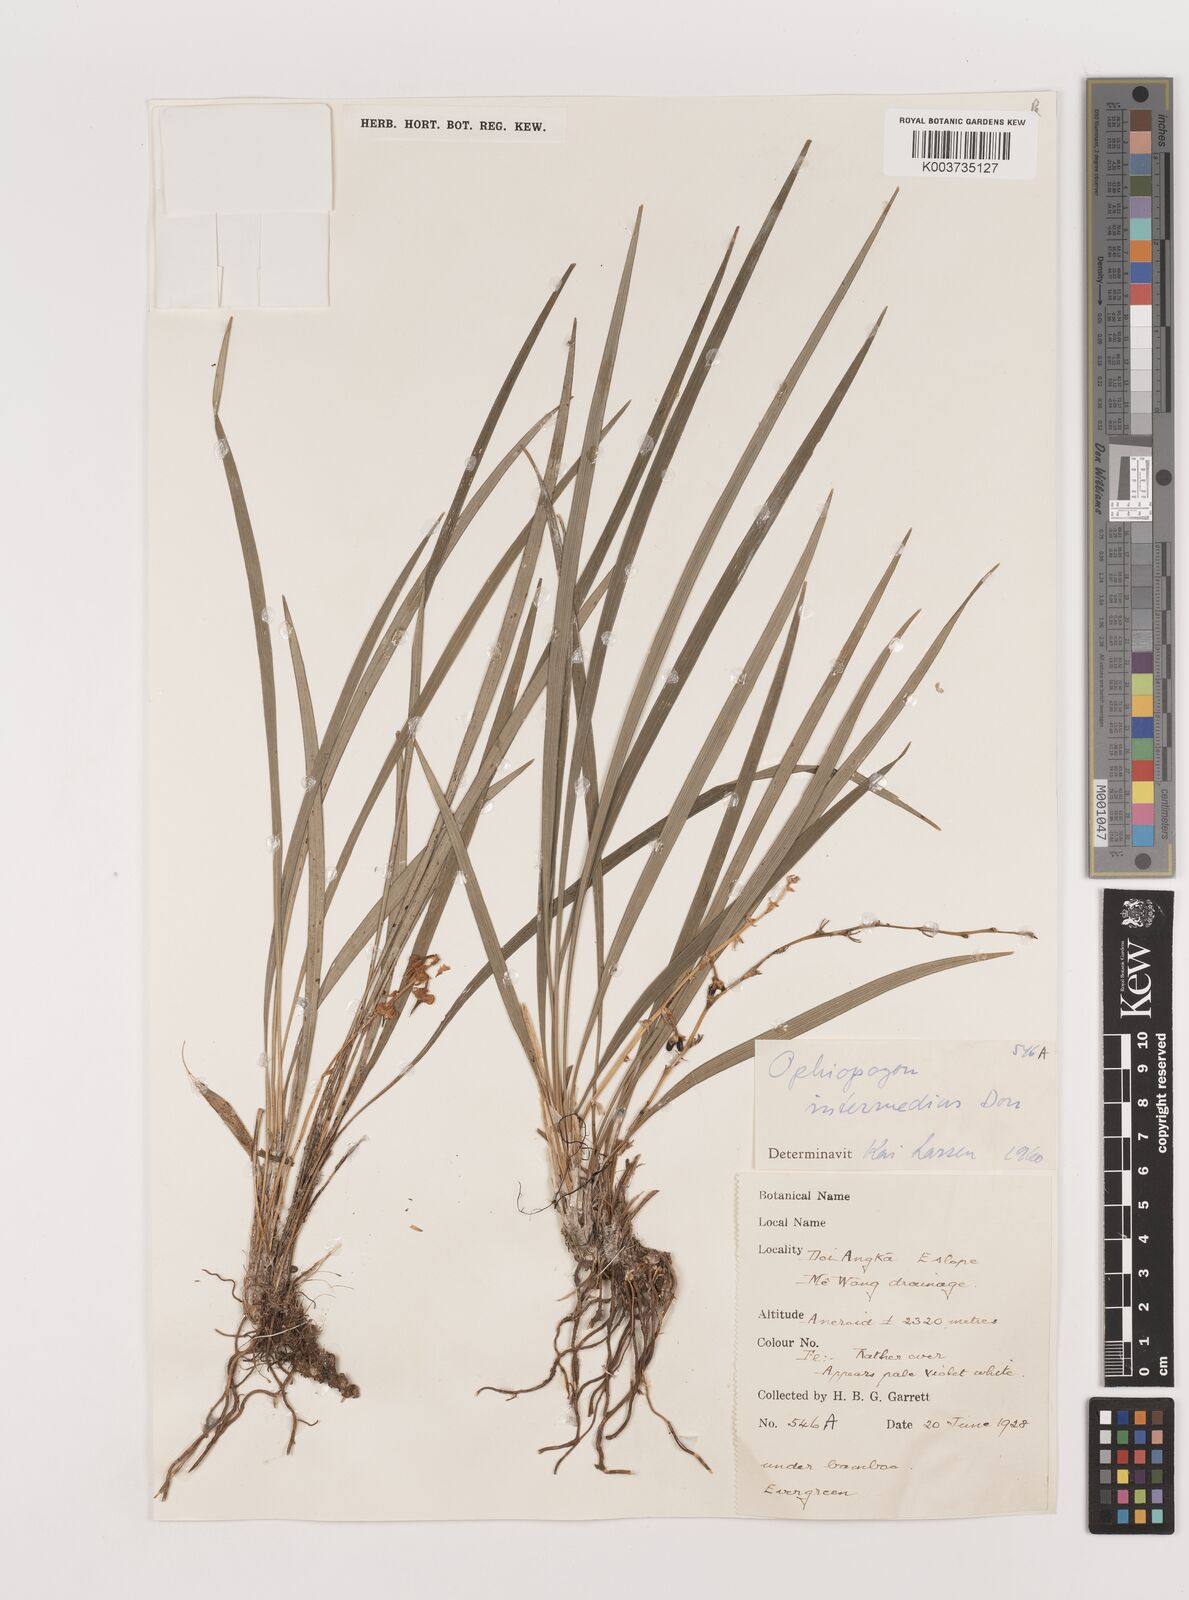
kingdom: Plantae
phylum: Tracheophyta
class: Liliopsida
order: Asparagales
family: Asparagaceae
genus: Ophiopogon
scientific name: Ophiopogon intermedius
